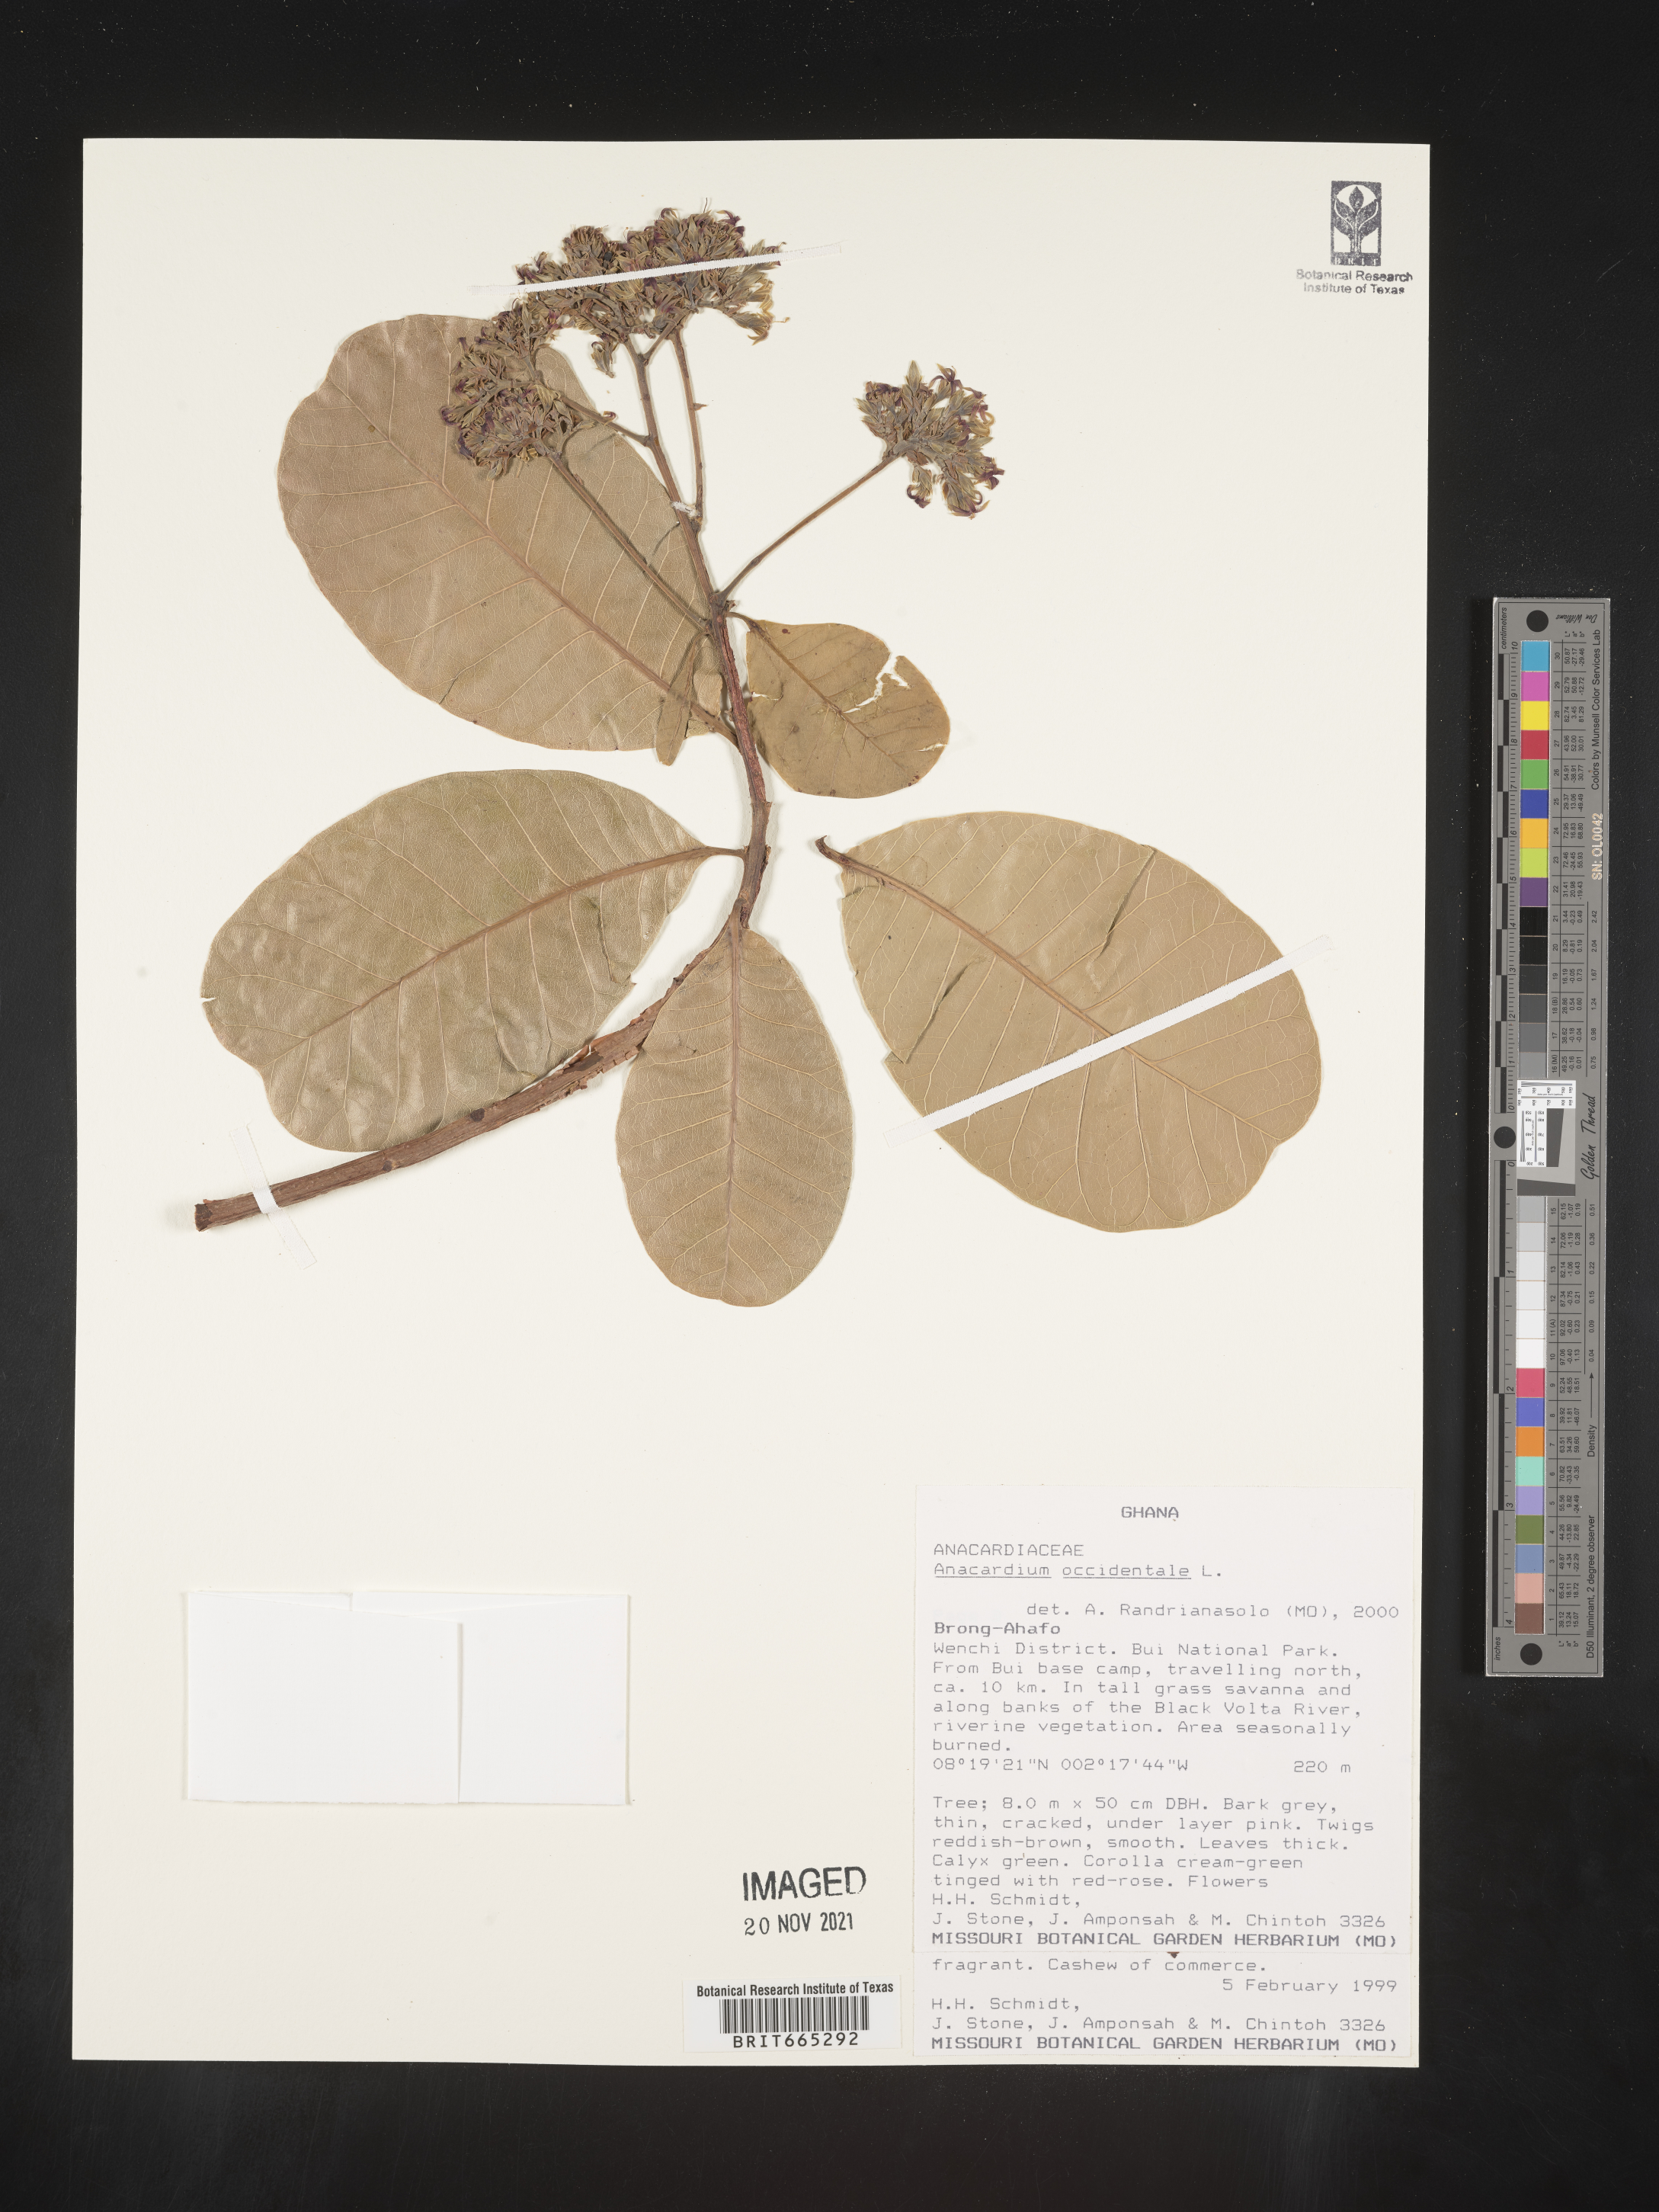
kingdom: Plantae
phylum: Tracheophyta
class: Magnoliopsida
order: Sapindales
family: Anacardiaceae
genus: Anacardium
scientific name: Anacardium
